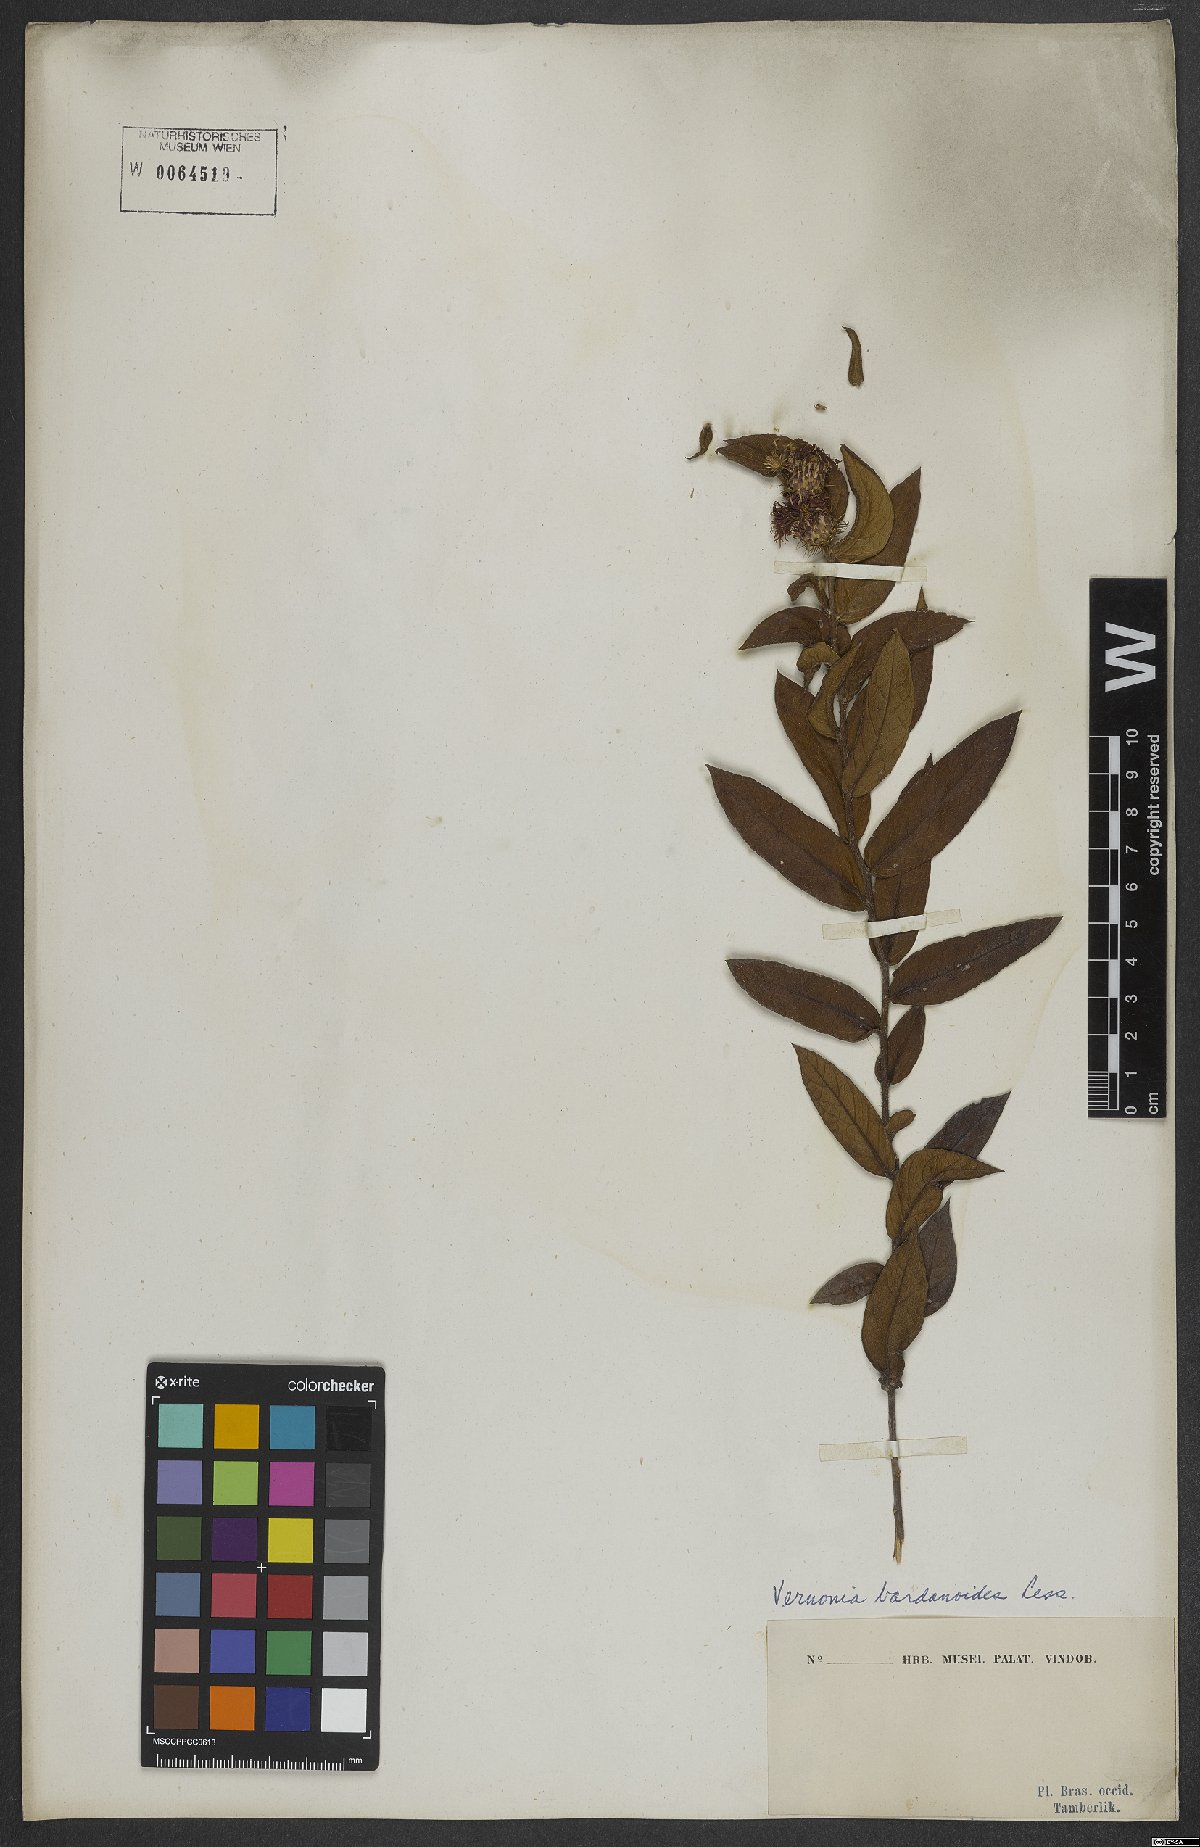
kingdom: Plantae
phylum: Tracheophyta
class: Magnoliopsida
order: Asterales
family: Asteraceae
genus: Lessingianthus
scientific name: Lessingianthus bardanioides
